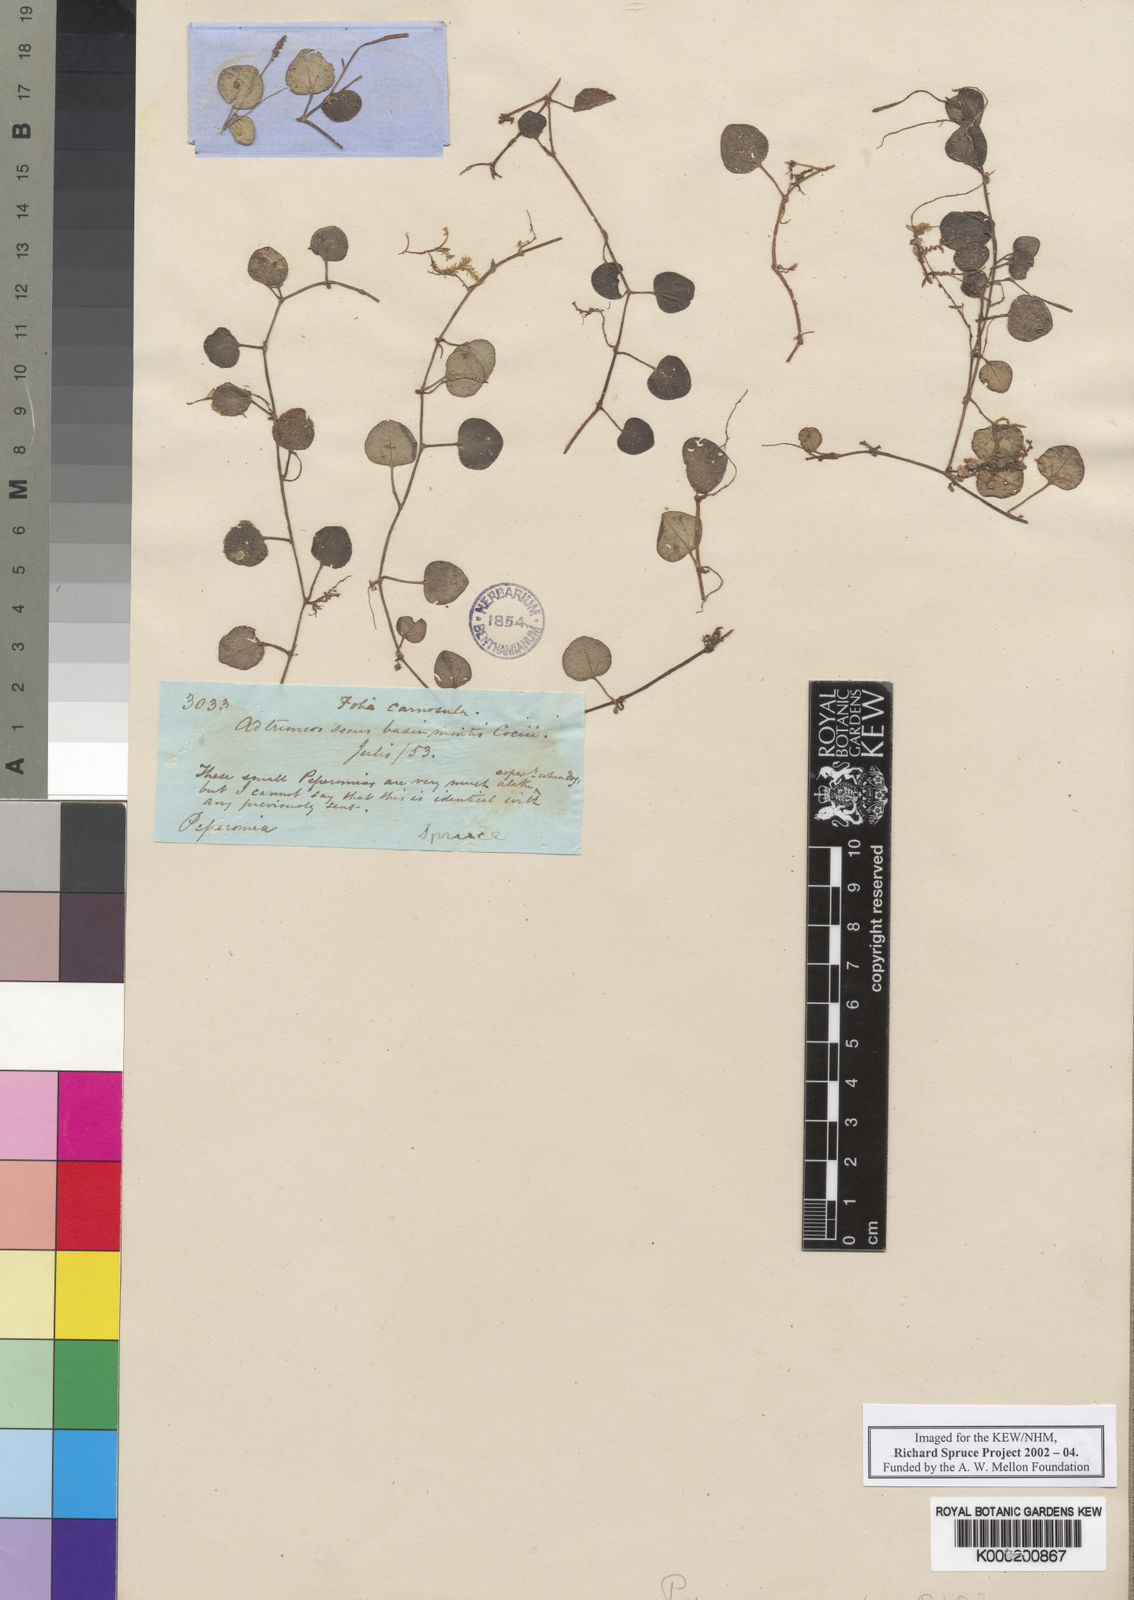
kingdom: Plantae
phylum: Tracheophyta
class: Magnoliopsida
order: Piperales
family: Piperaceae
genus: Peperomia
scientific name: Peperomia serpens
